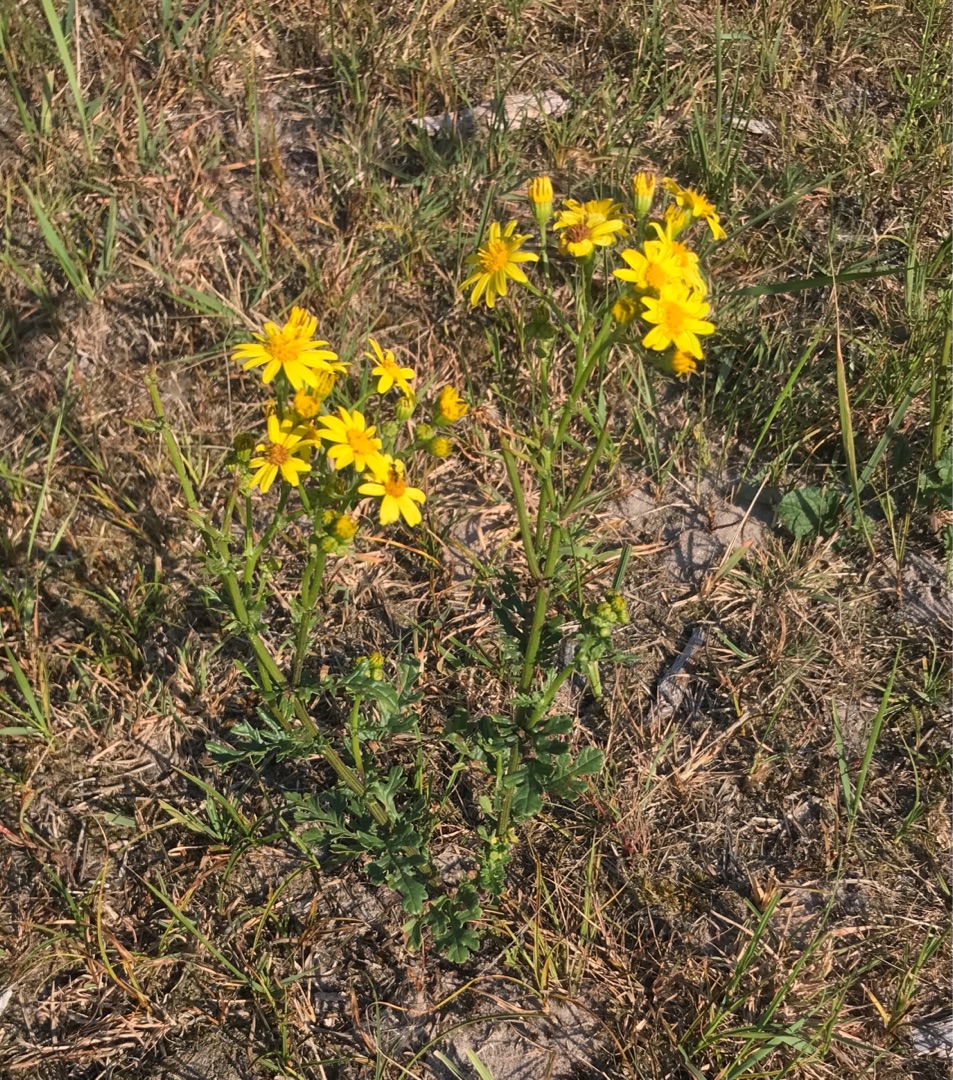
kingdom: Plantae
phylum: Tracheophyta
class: Magnoliopsida
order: Asterales
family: Asteraceae
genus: Jacobaea
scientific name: Jacobaea vulgaris
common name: Eng-brandbæger
